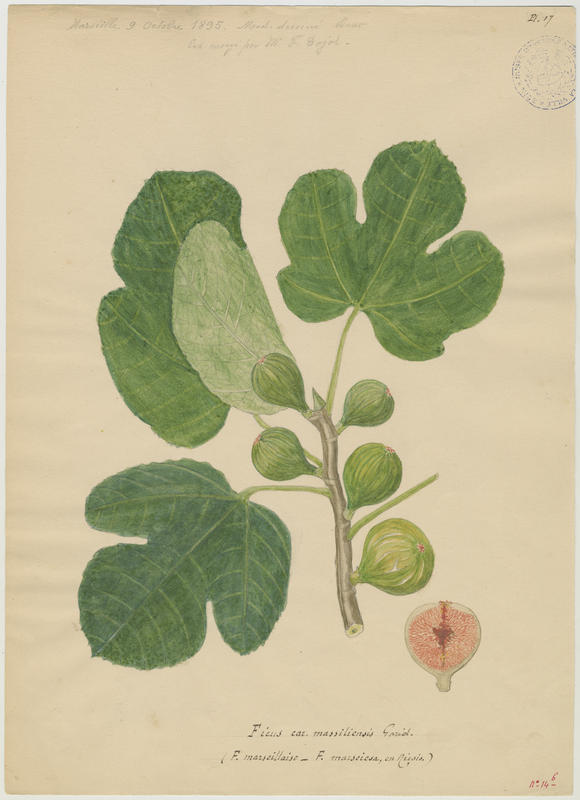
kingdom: Plantae
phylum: Tracheophyta
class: Magnoliopsida
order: Rosales
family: Moraceae
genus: Ficus
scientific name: Ficus carica
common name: Fig
